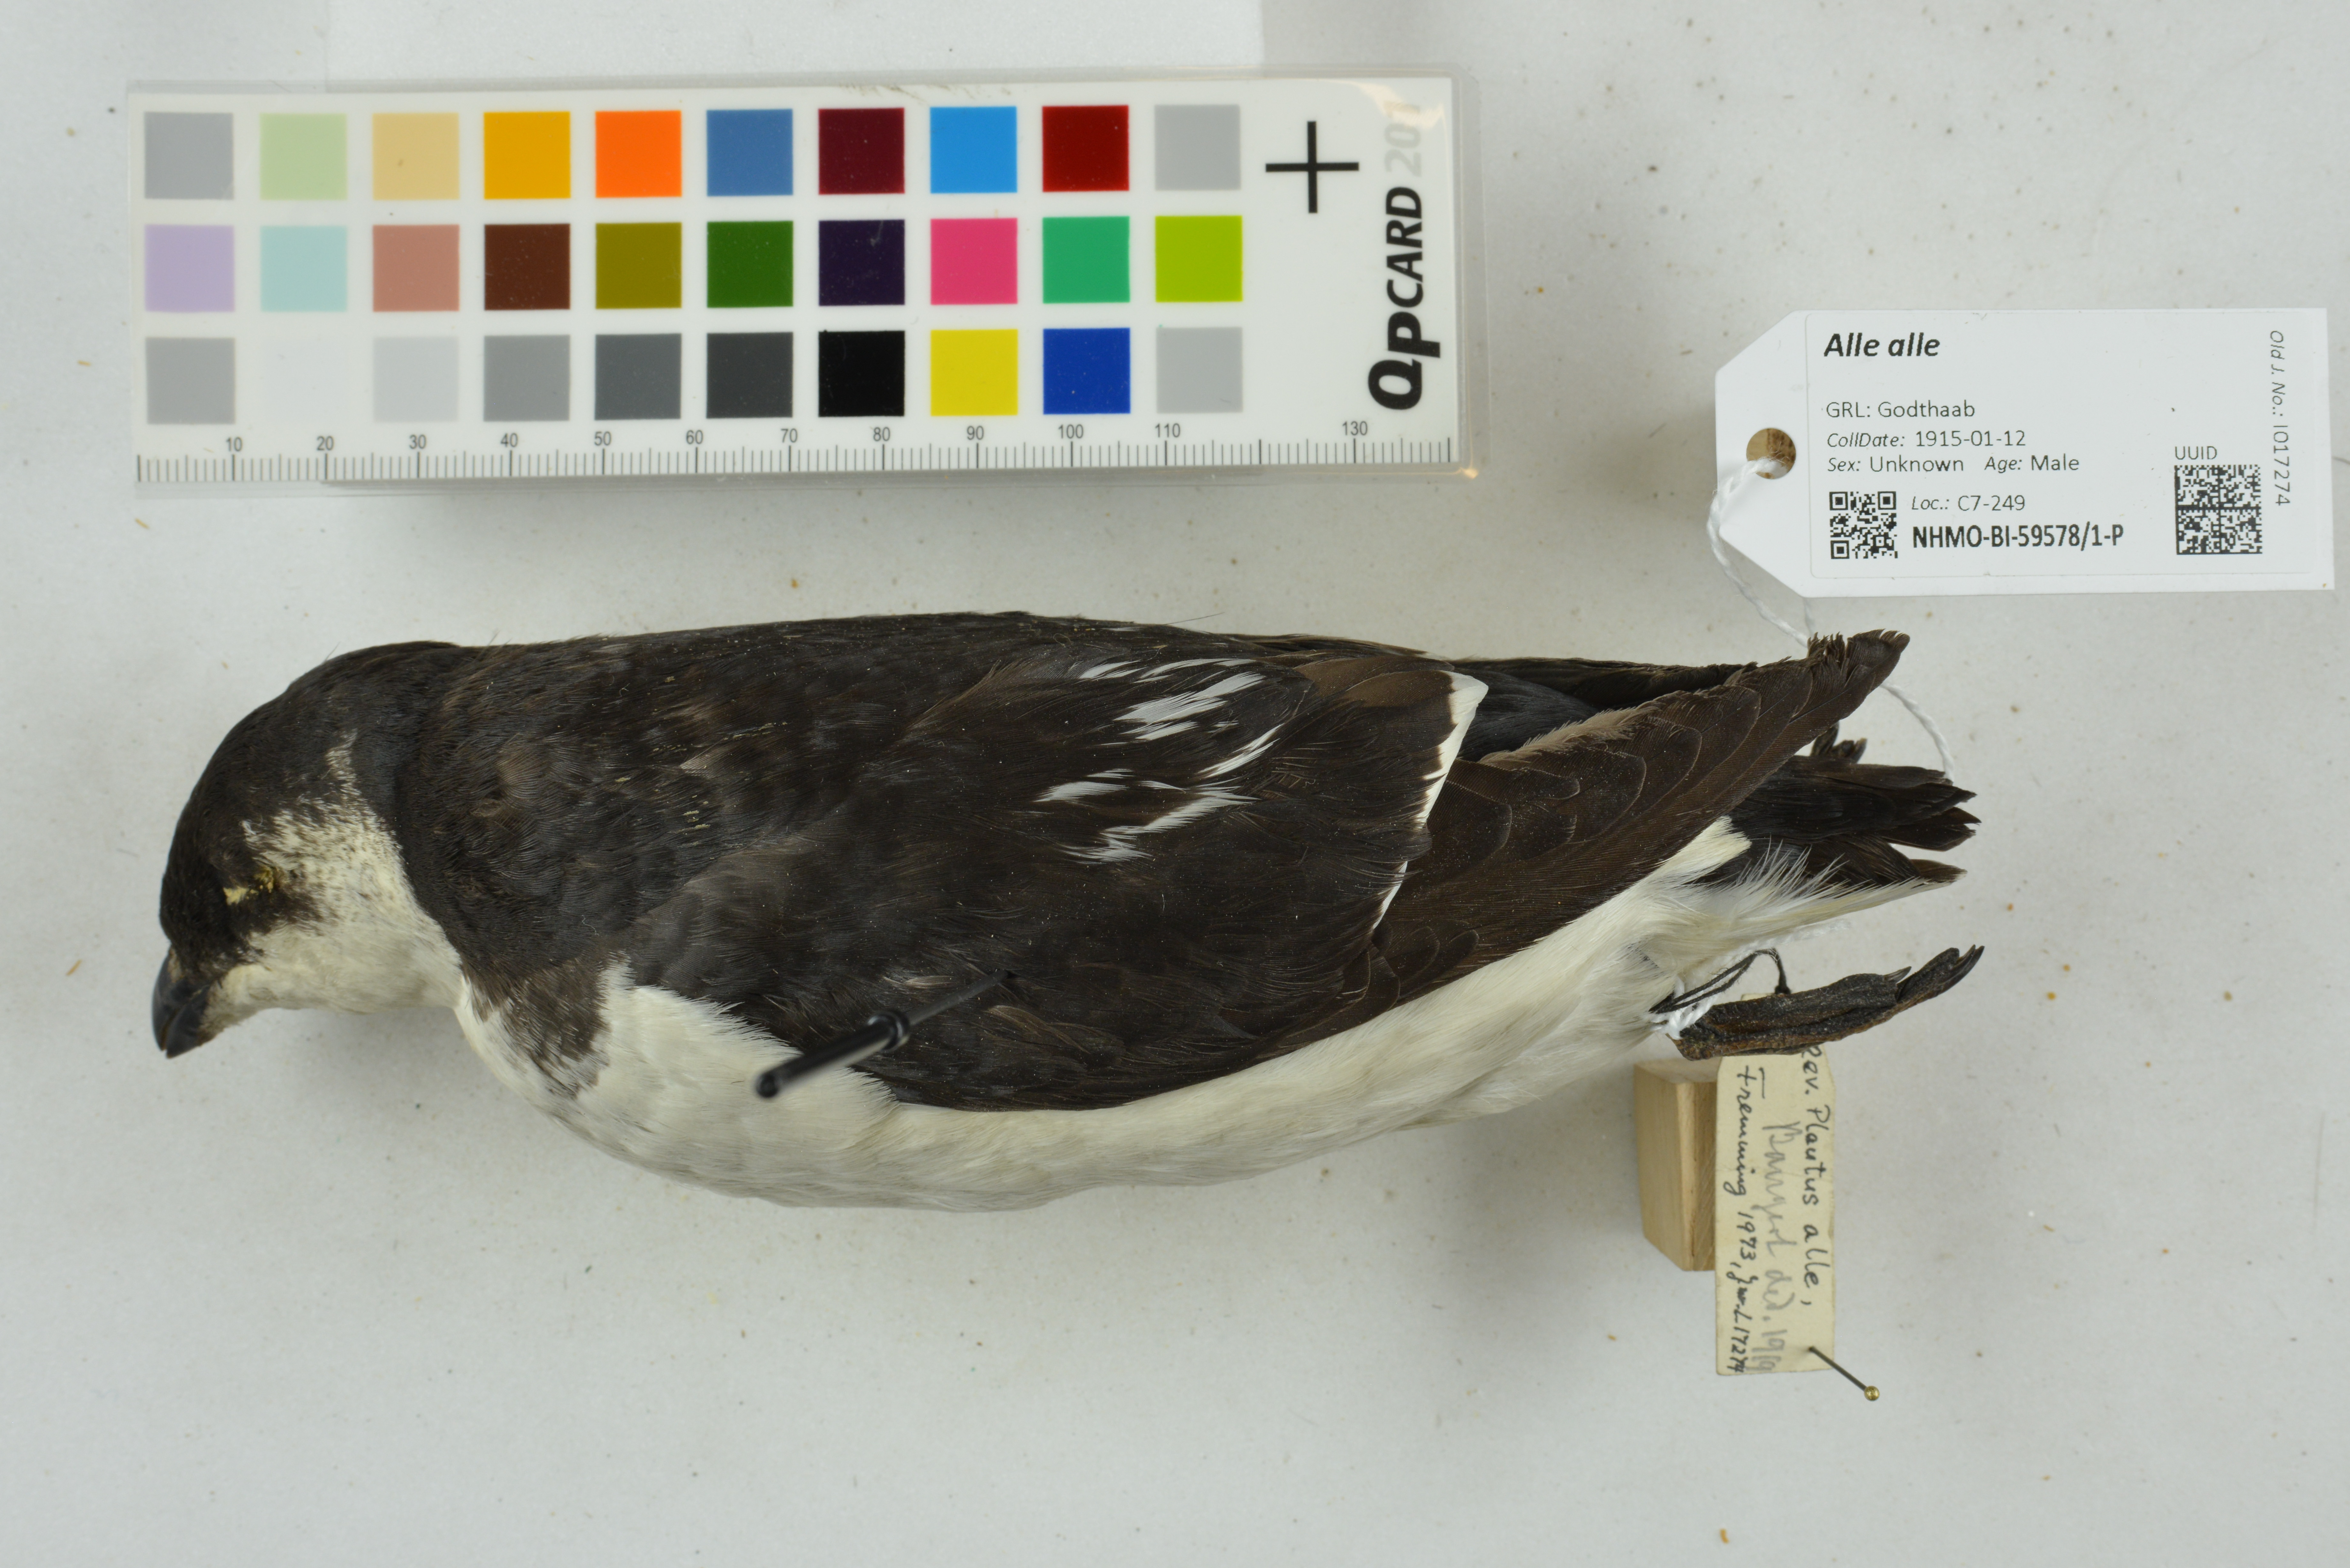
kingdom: Animalia
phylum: Chordata
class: Aves
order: Charadriiformes
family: Alcidae
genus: Alle
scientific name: Alle alle
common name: Little auk
